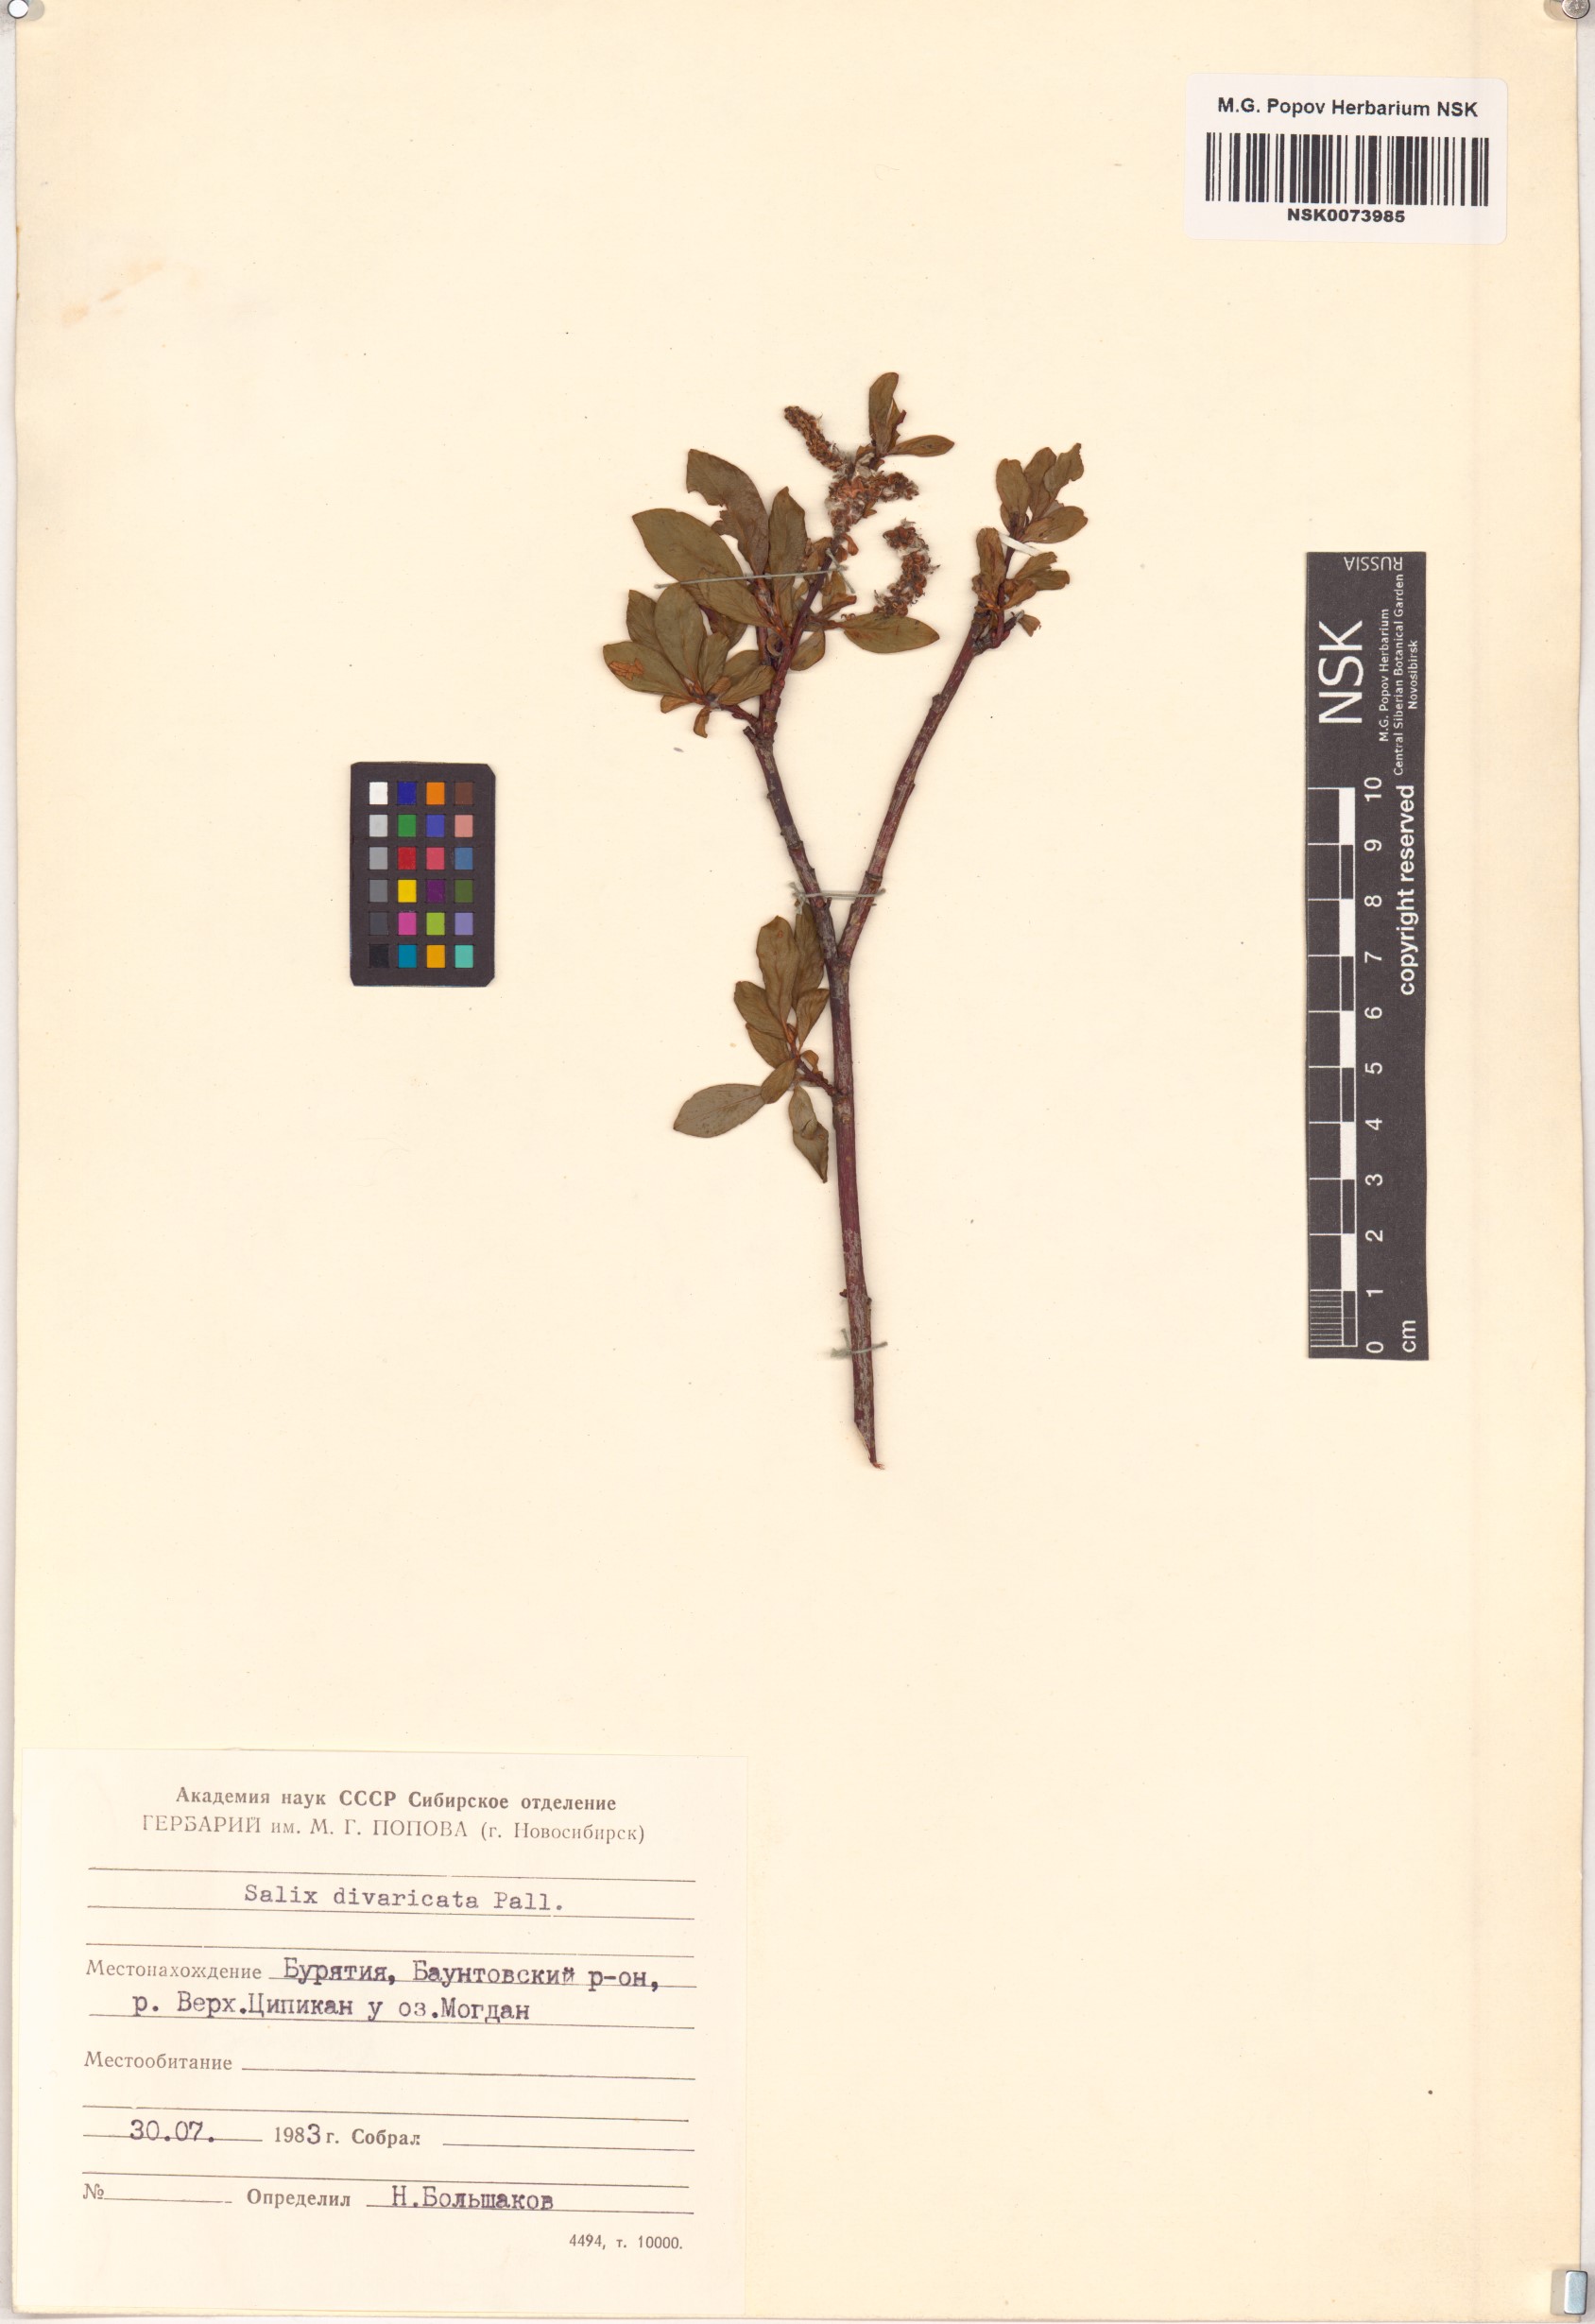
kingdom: Plantae
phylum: Tracheophyta
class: Magnoliopsida
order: Malpighiales
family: Salicaceae
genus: Salix
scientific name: Salix divaricata
